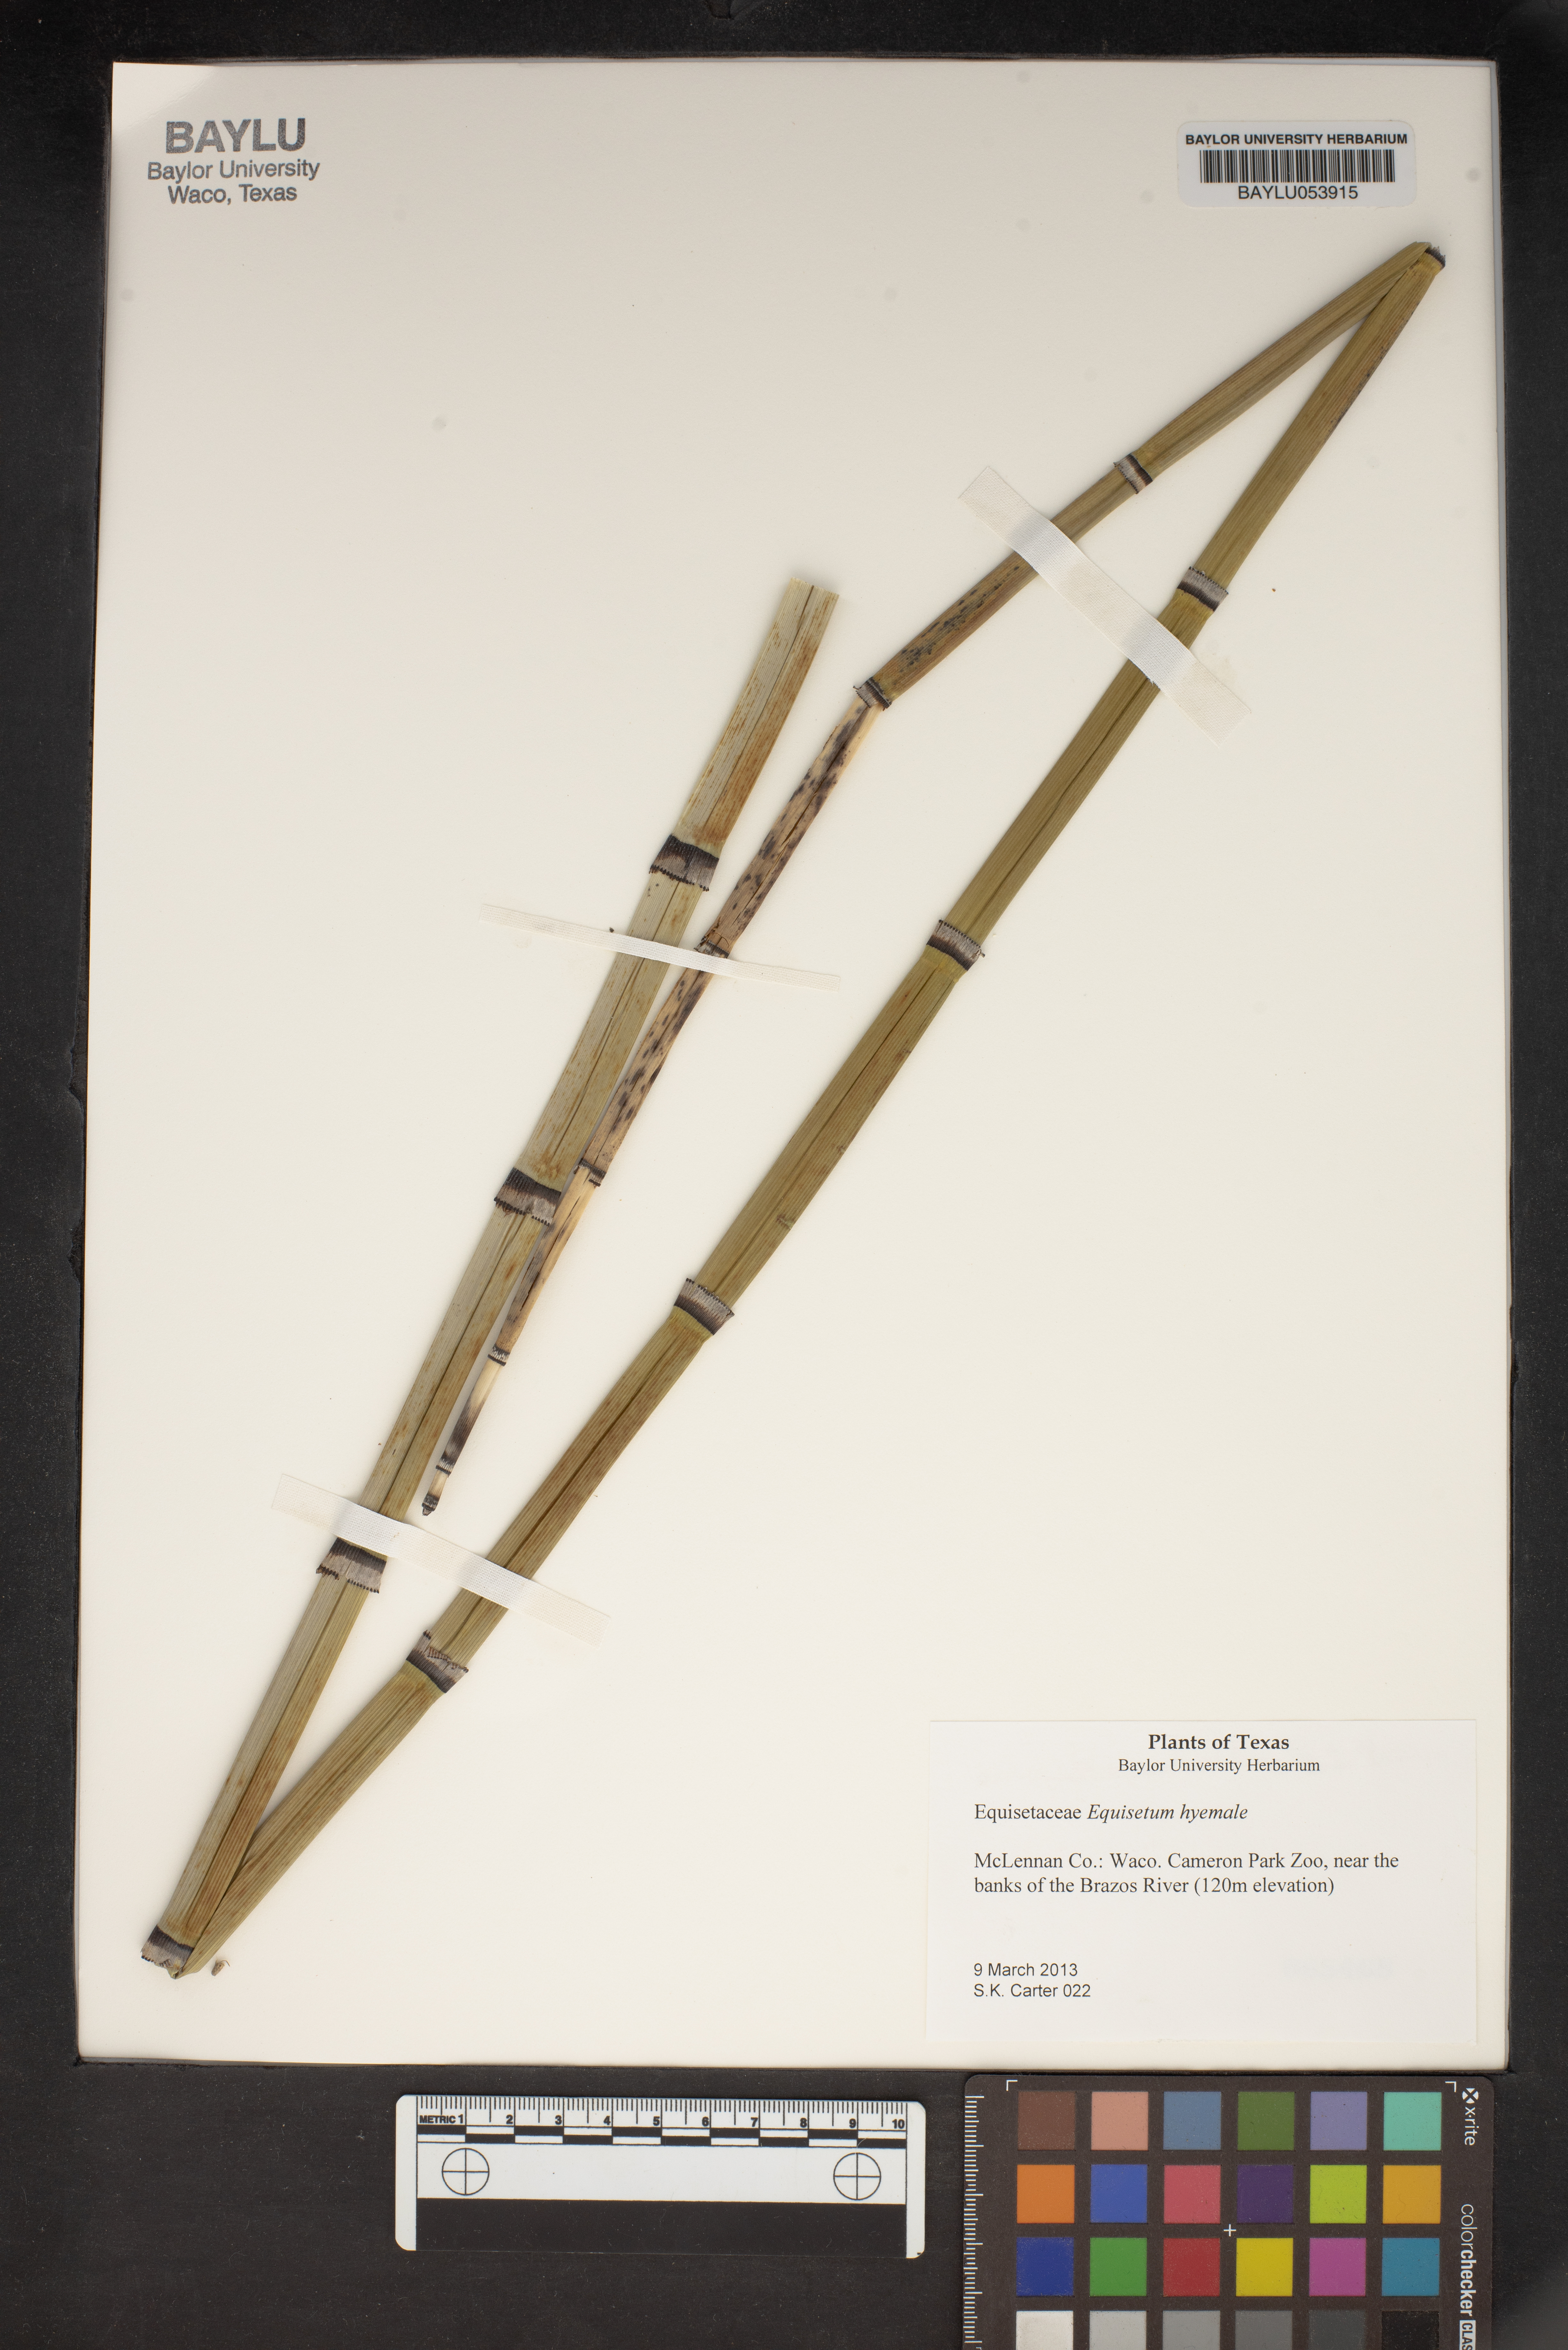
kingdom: Plantae
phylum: Tracheophyta
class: Polypodiopsida
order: Equisetales
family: Equisetaceae
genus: Equisetum
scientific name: Equisetum hyemale
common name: Rough horsetail
